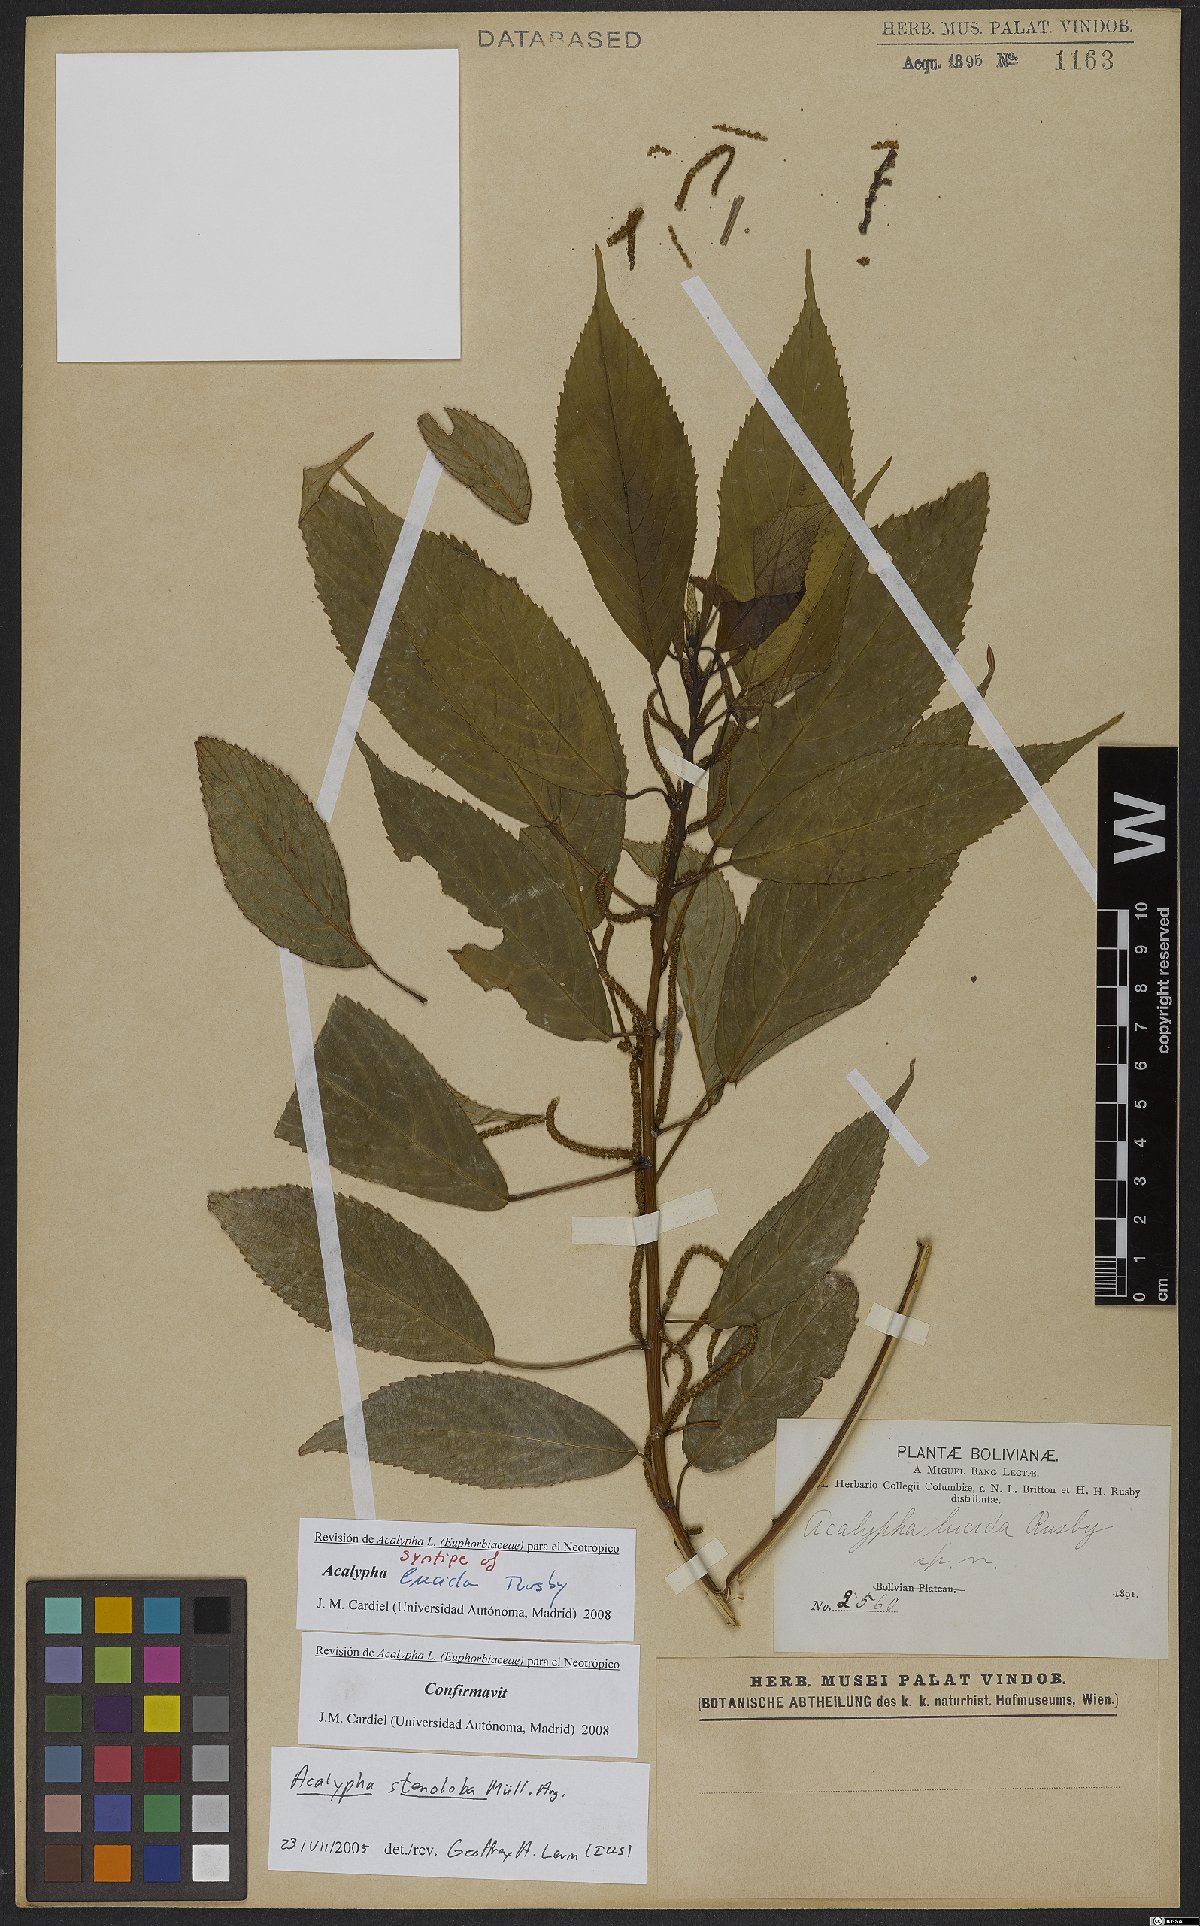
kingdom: Plantae
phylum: Tracheophyta
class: Magnoliopsida
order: Malpighiales
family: Euphorbiaceae
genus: Acalypha
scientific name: Acalypha stenoloba
